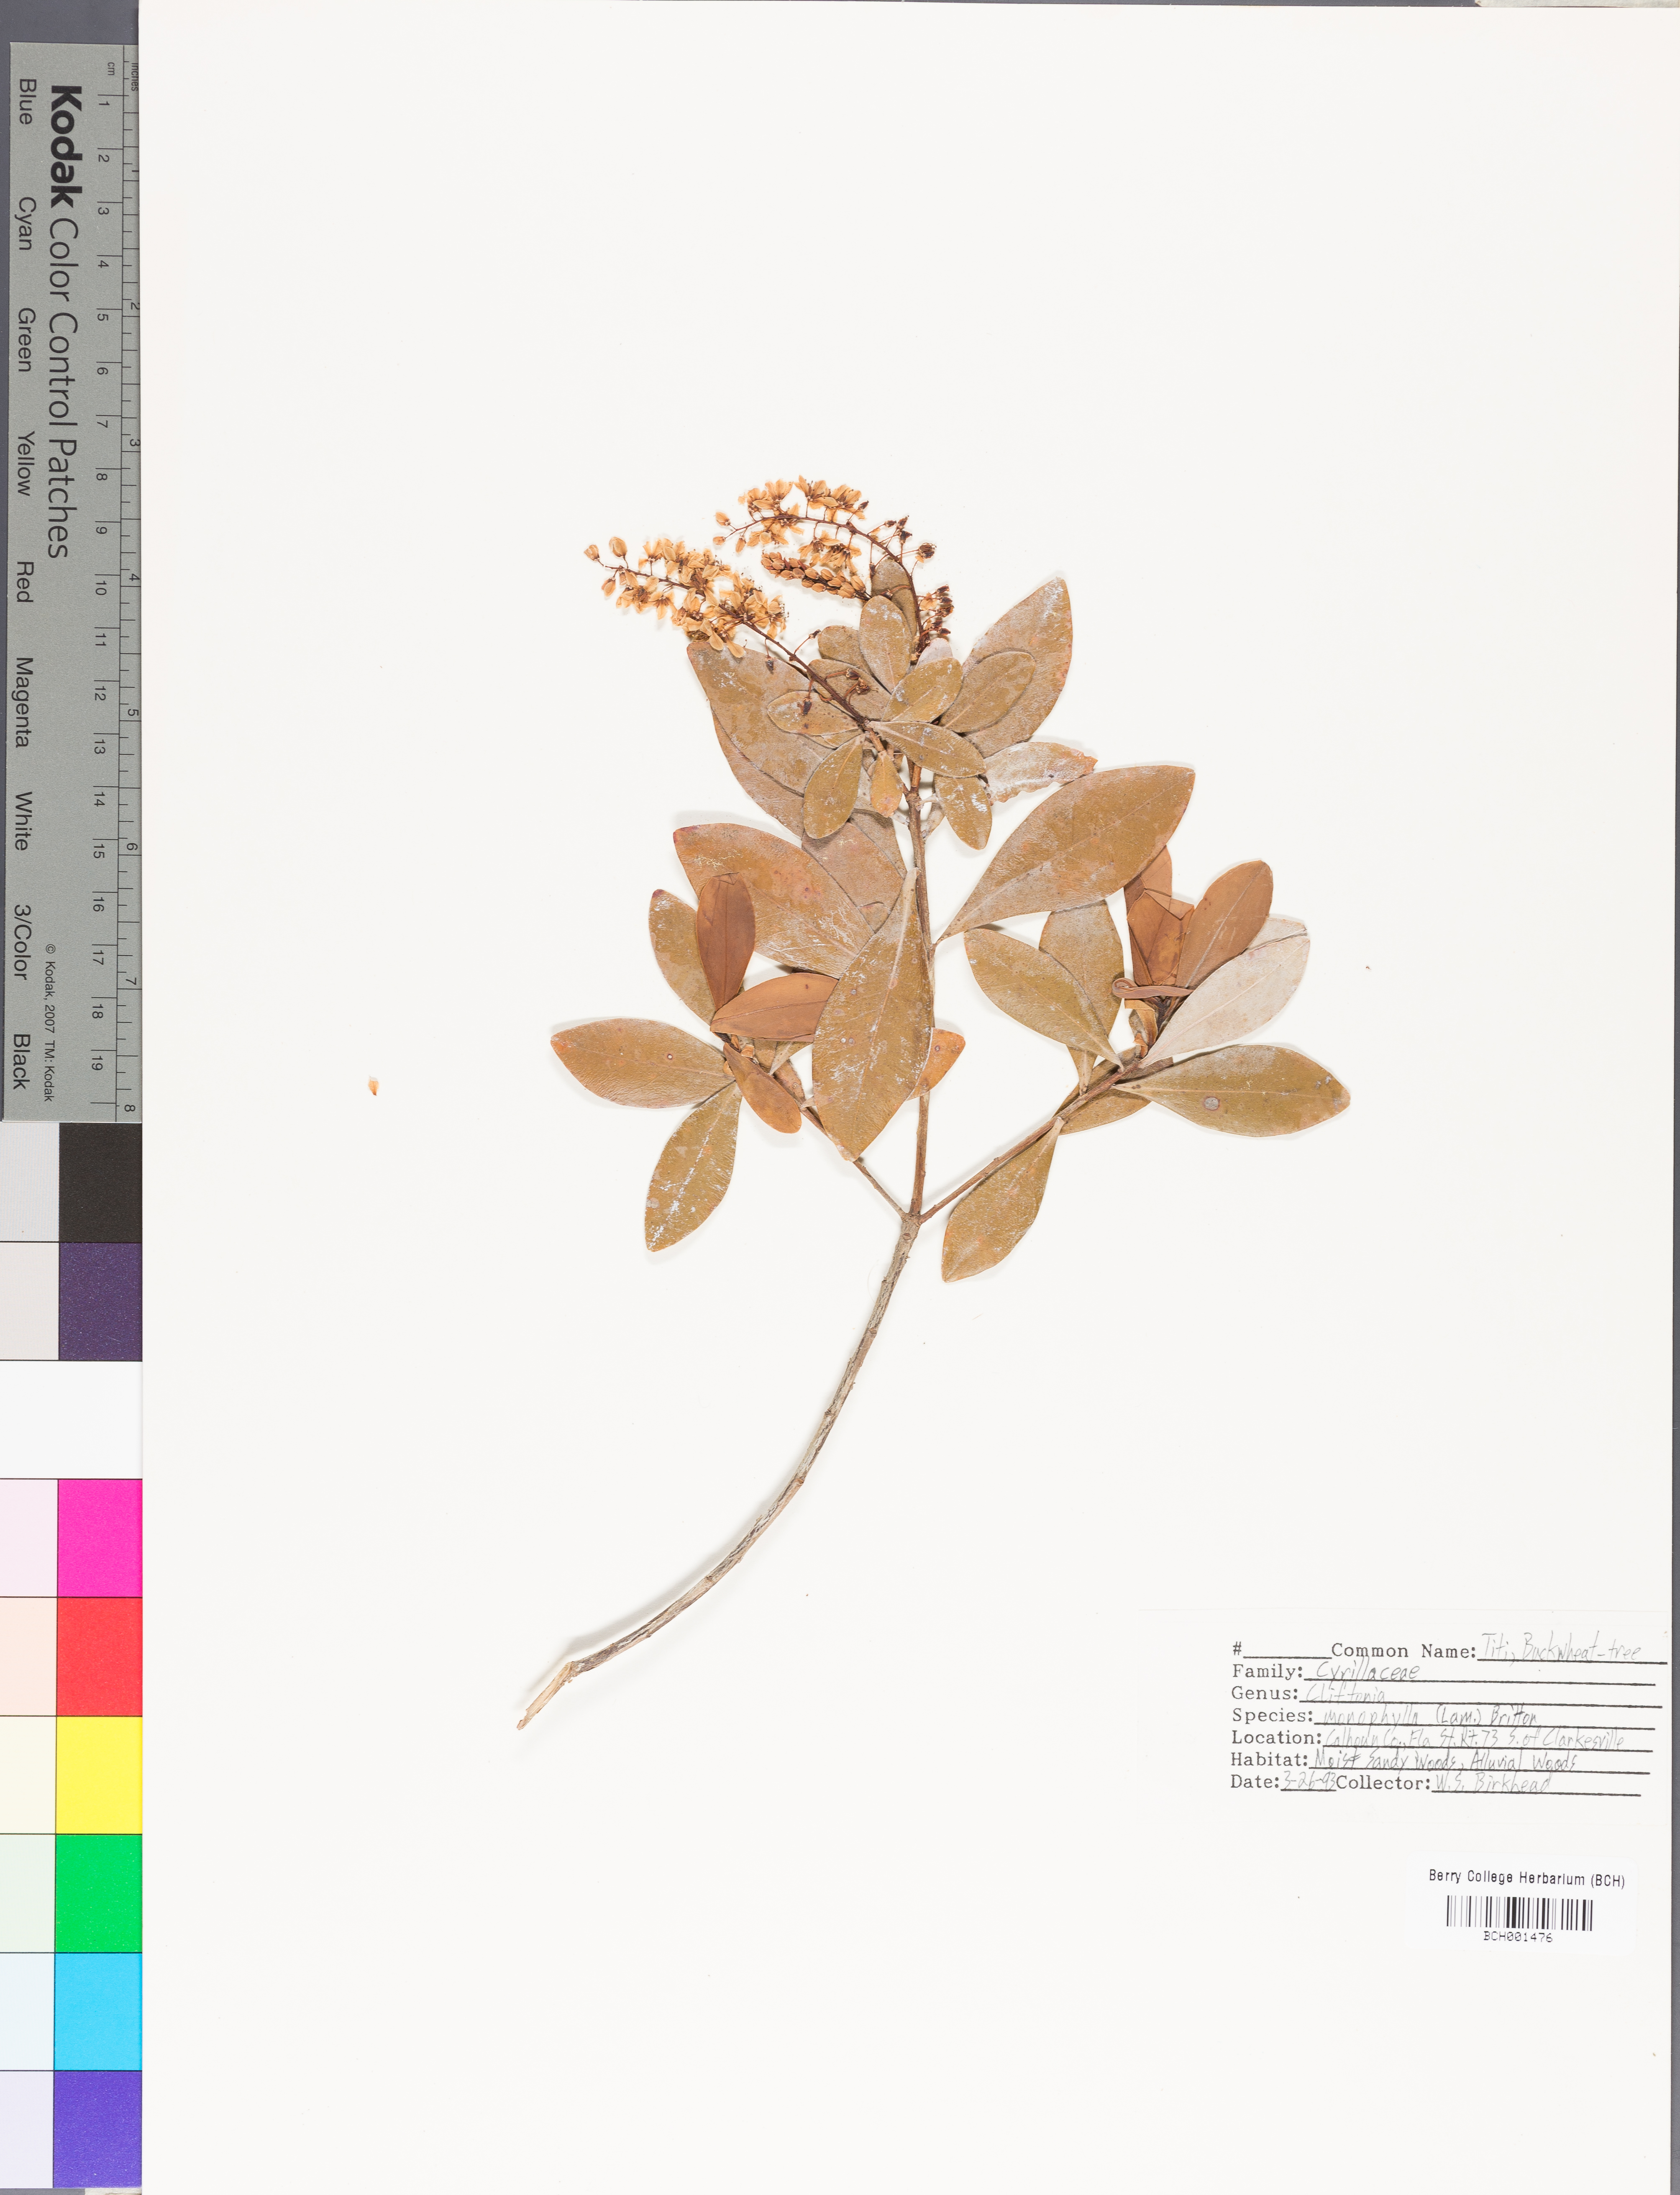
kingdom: Plantae
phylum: Tracheophyta
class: Magnoliopsida
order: Ericales
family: Cyrillaceae
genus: Cliftonia
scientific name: Cliftonia monophylla
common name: Titi
